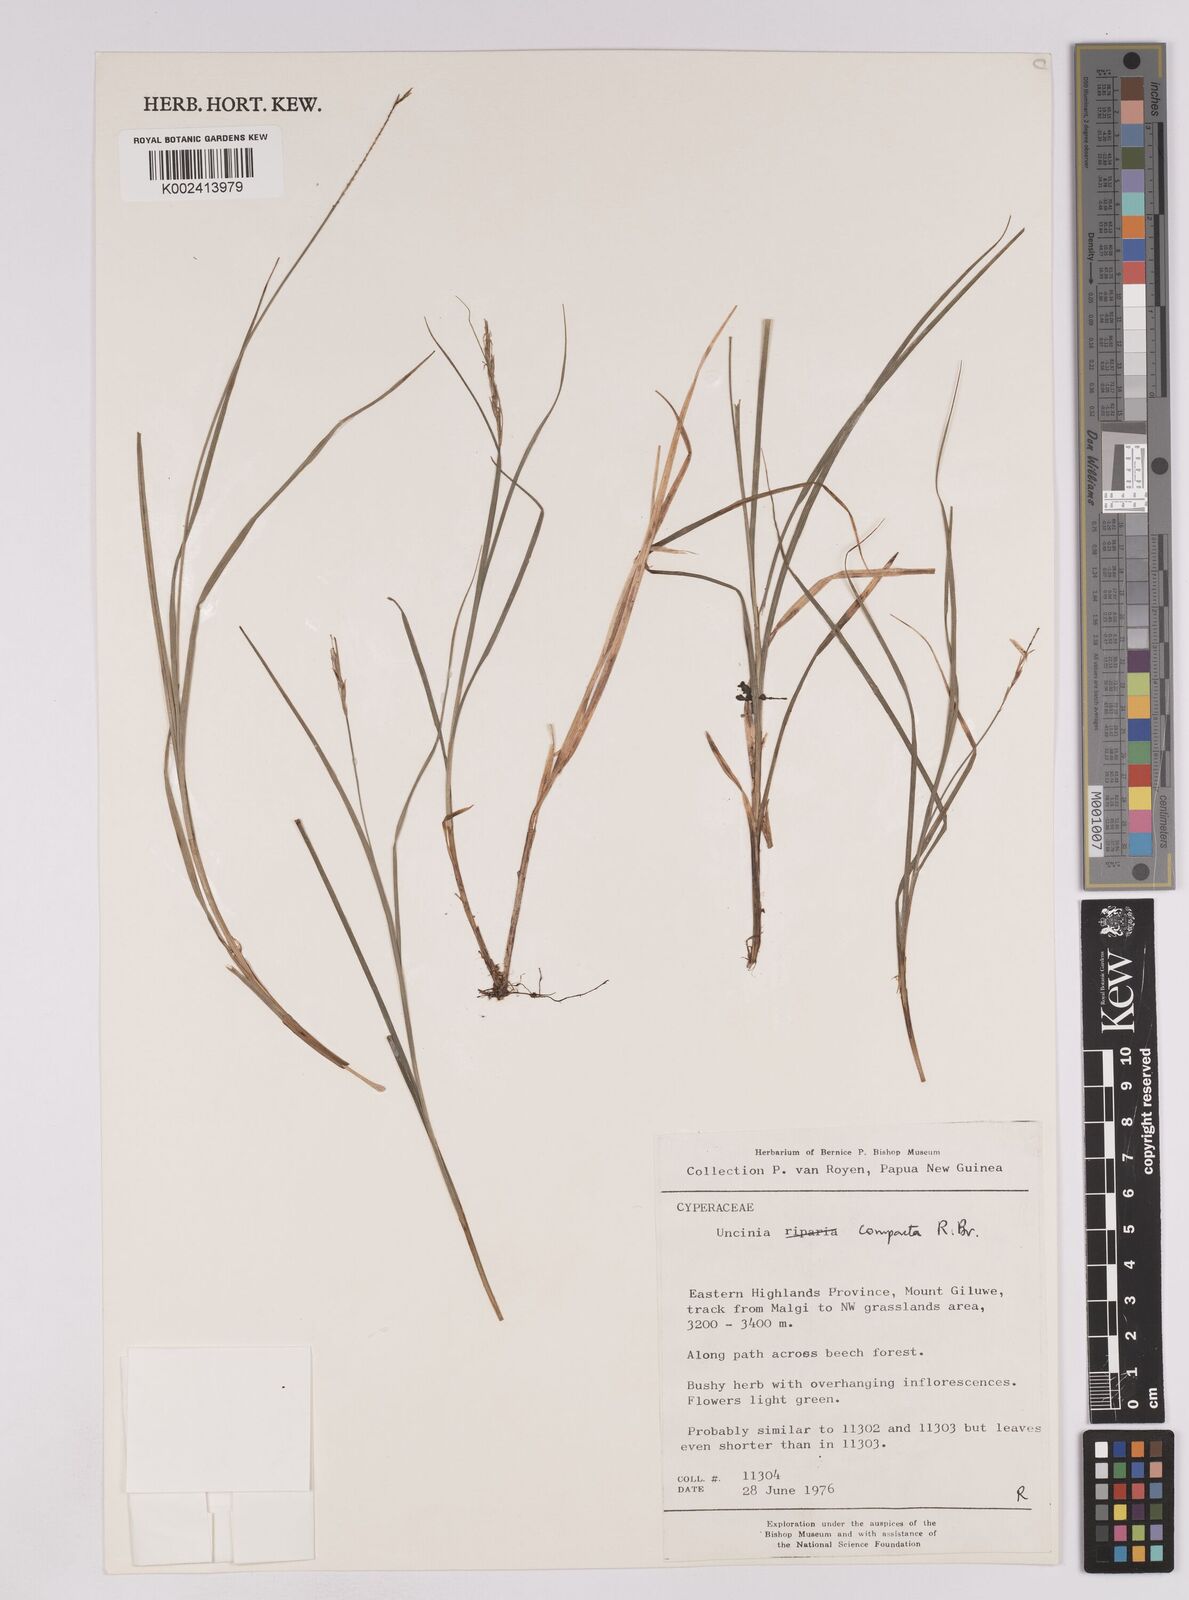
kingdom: Plantae
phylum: Tracheophyta
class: Liliopsida
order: Poales
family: Cyperaceae
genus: Carex
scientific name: Carex austrocompacta
